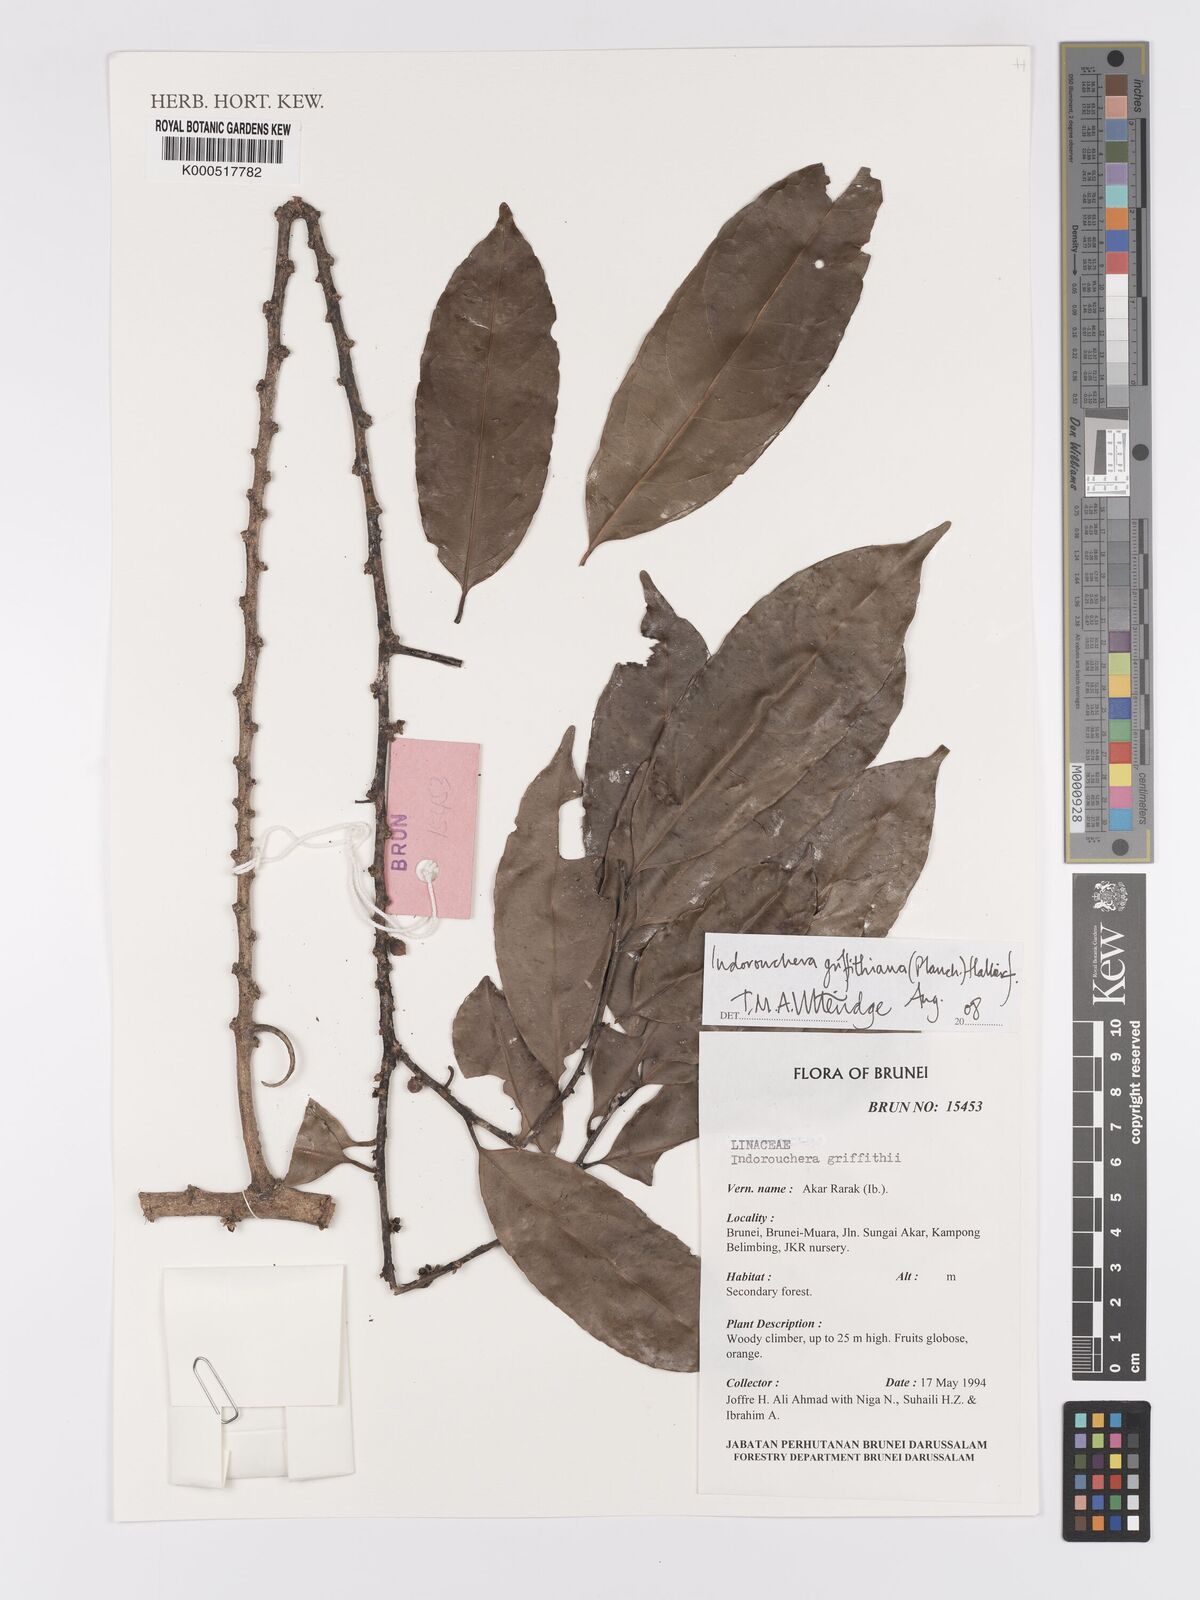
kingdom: Plantae
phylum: Tracheophyta
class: Magnoliopsida
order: Malpighiales
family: Linaceae
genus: Indorouchera
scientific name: Indorouchera griffithiana
